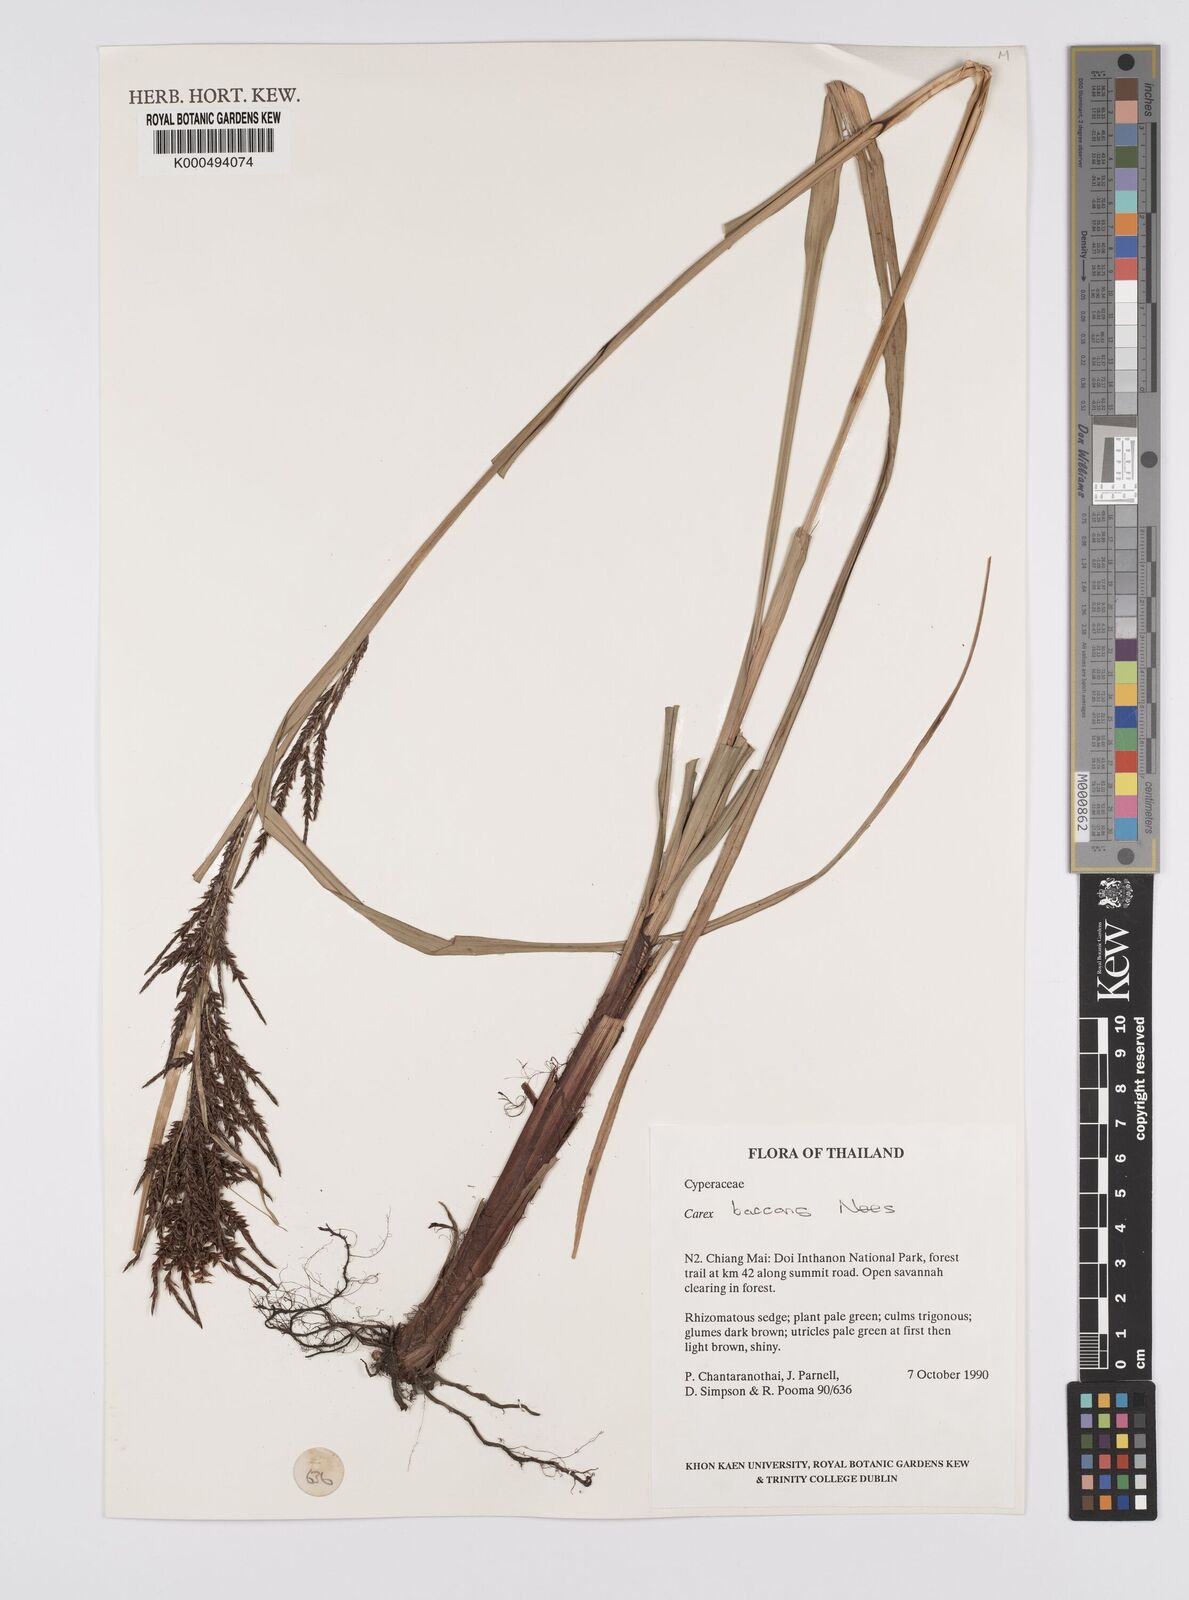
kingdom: Plantae
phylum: Tracheophyta
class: Liliopsida
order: Poales
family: Cyperaceae
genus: Carex
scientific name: Carex baccans
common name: Crimson seeded sedge
